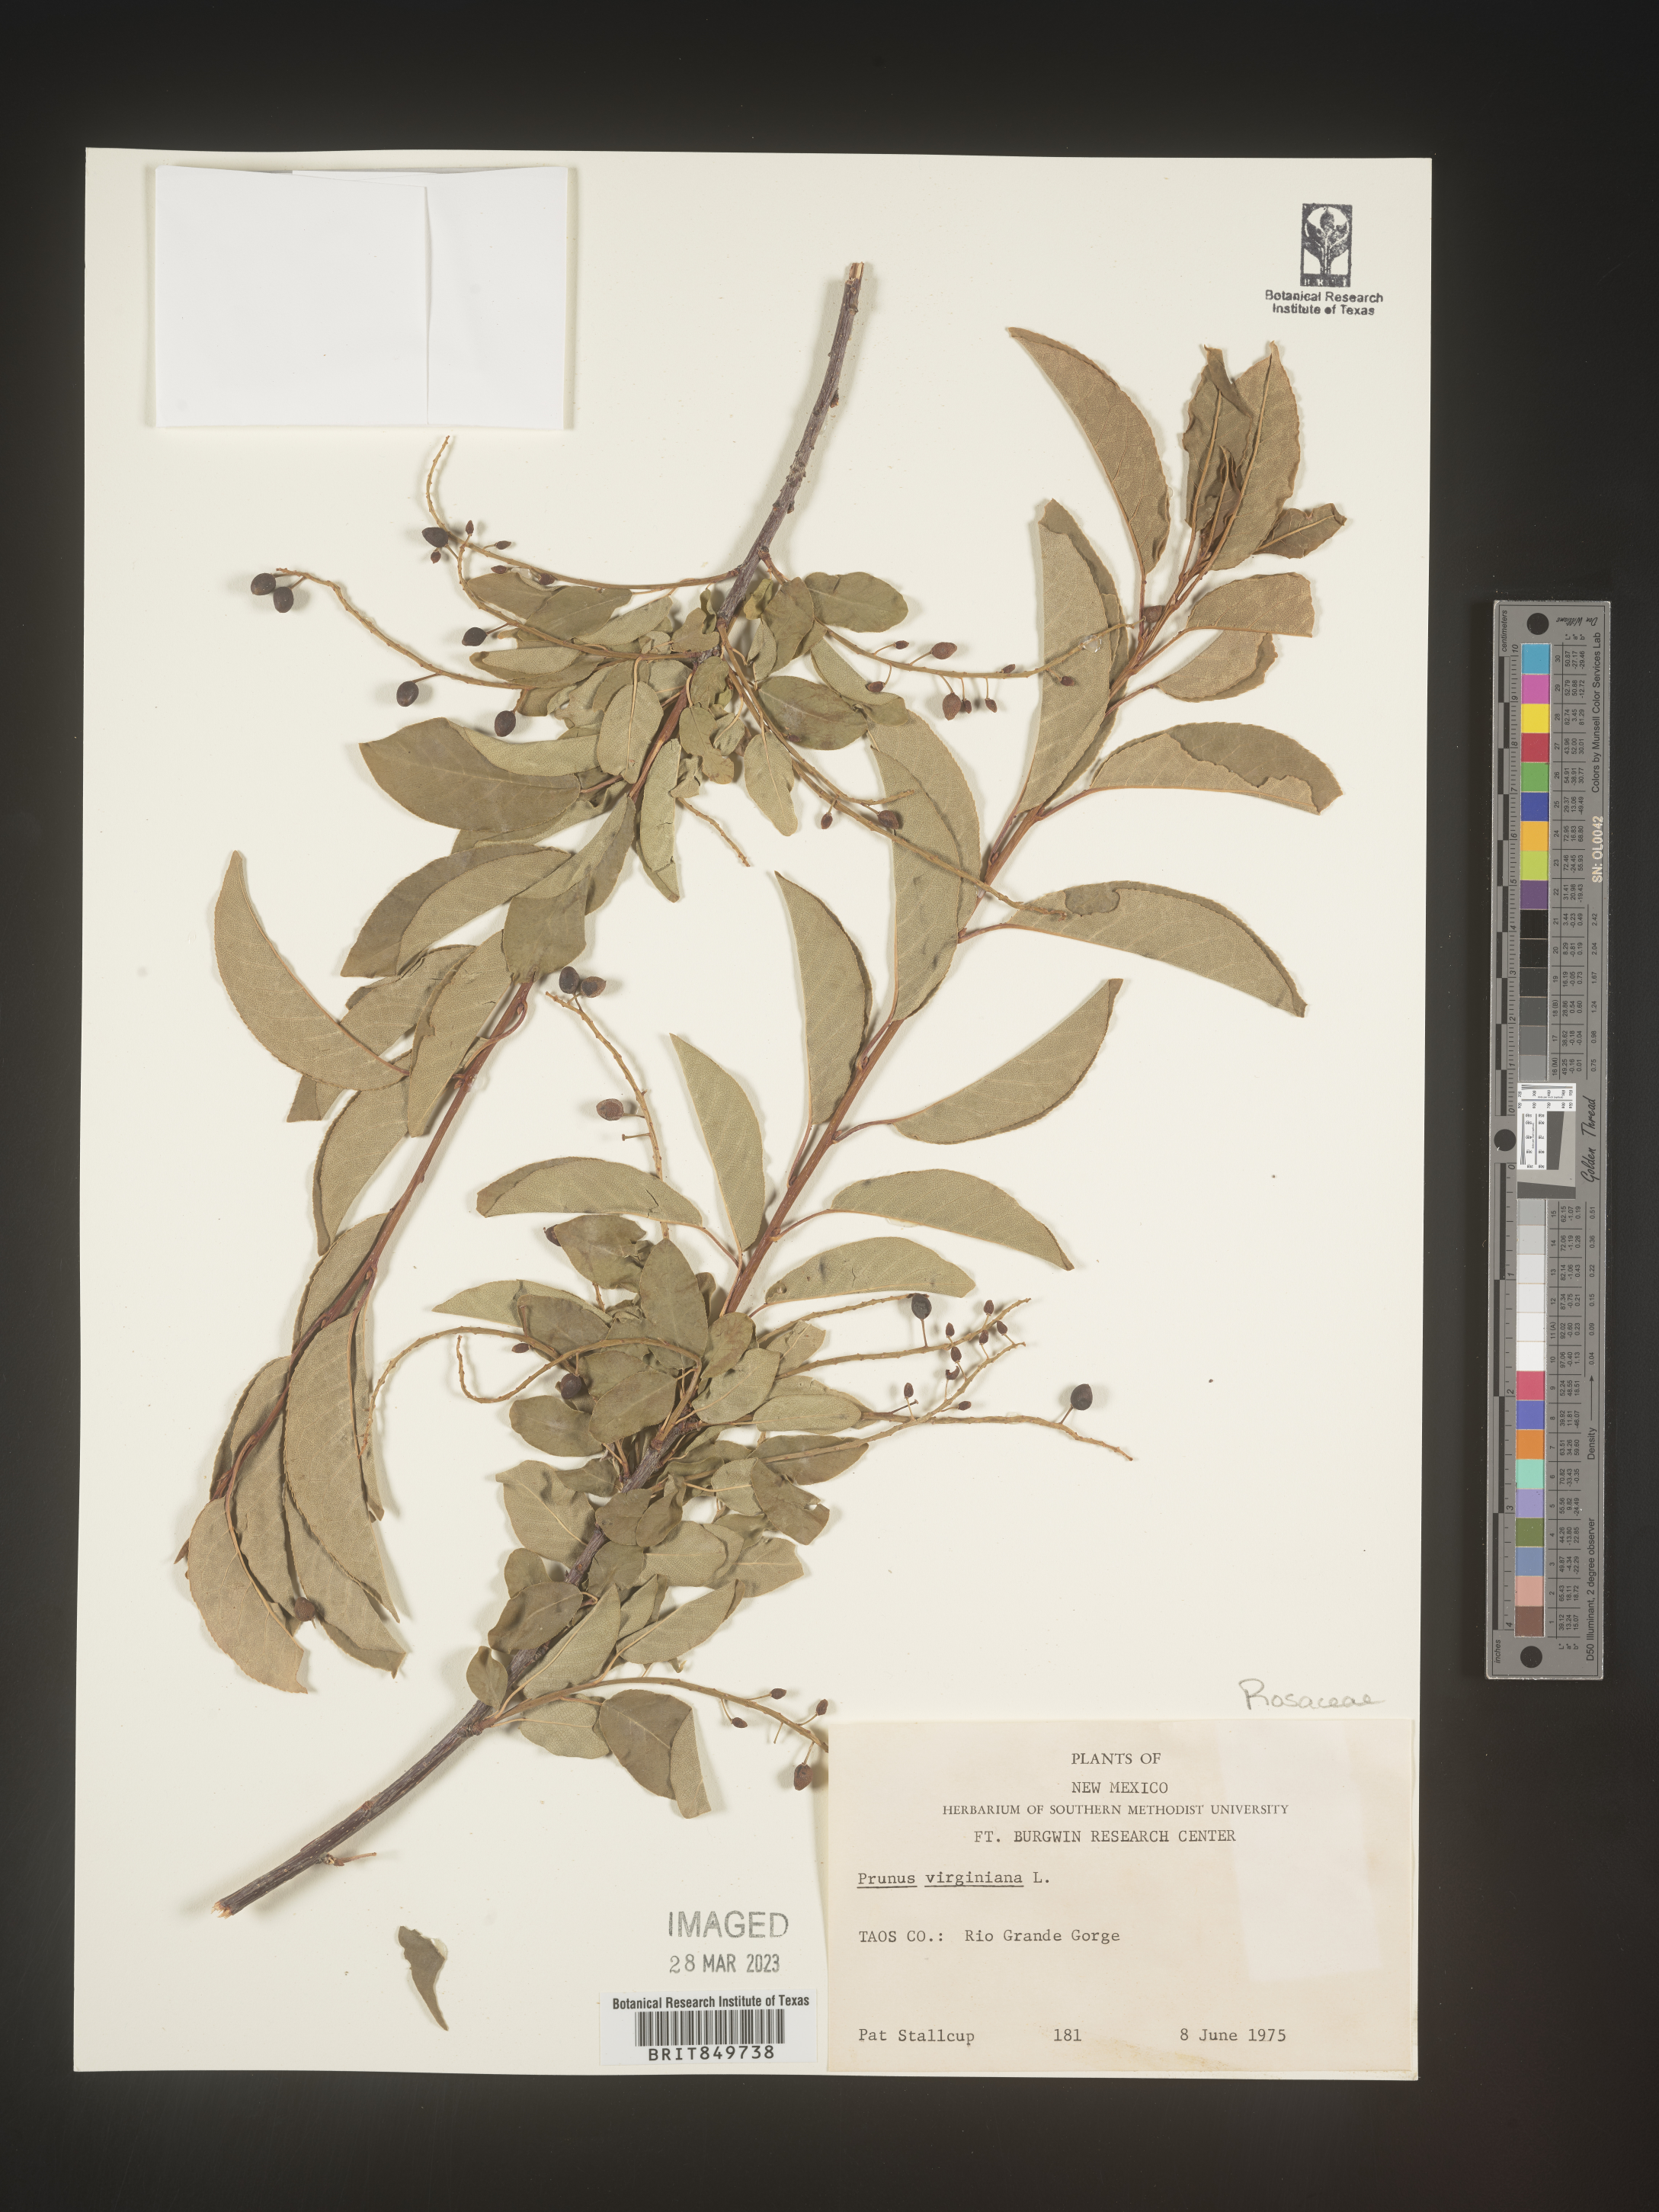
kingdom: Plantae
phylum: Tracheophyta
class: Magnoliopsida
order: Rosales
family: Rosaceae
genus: Prunus
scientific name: Prunus virginiana
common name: Chokecherry
